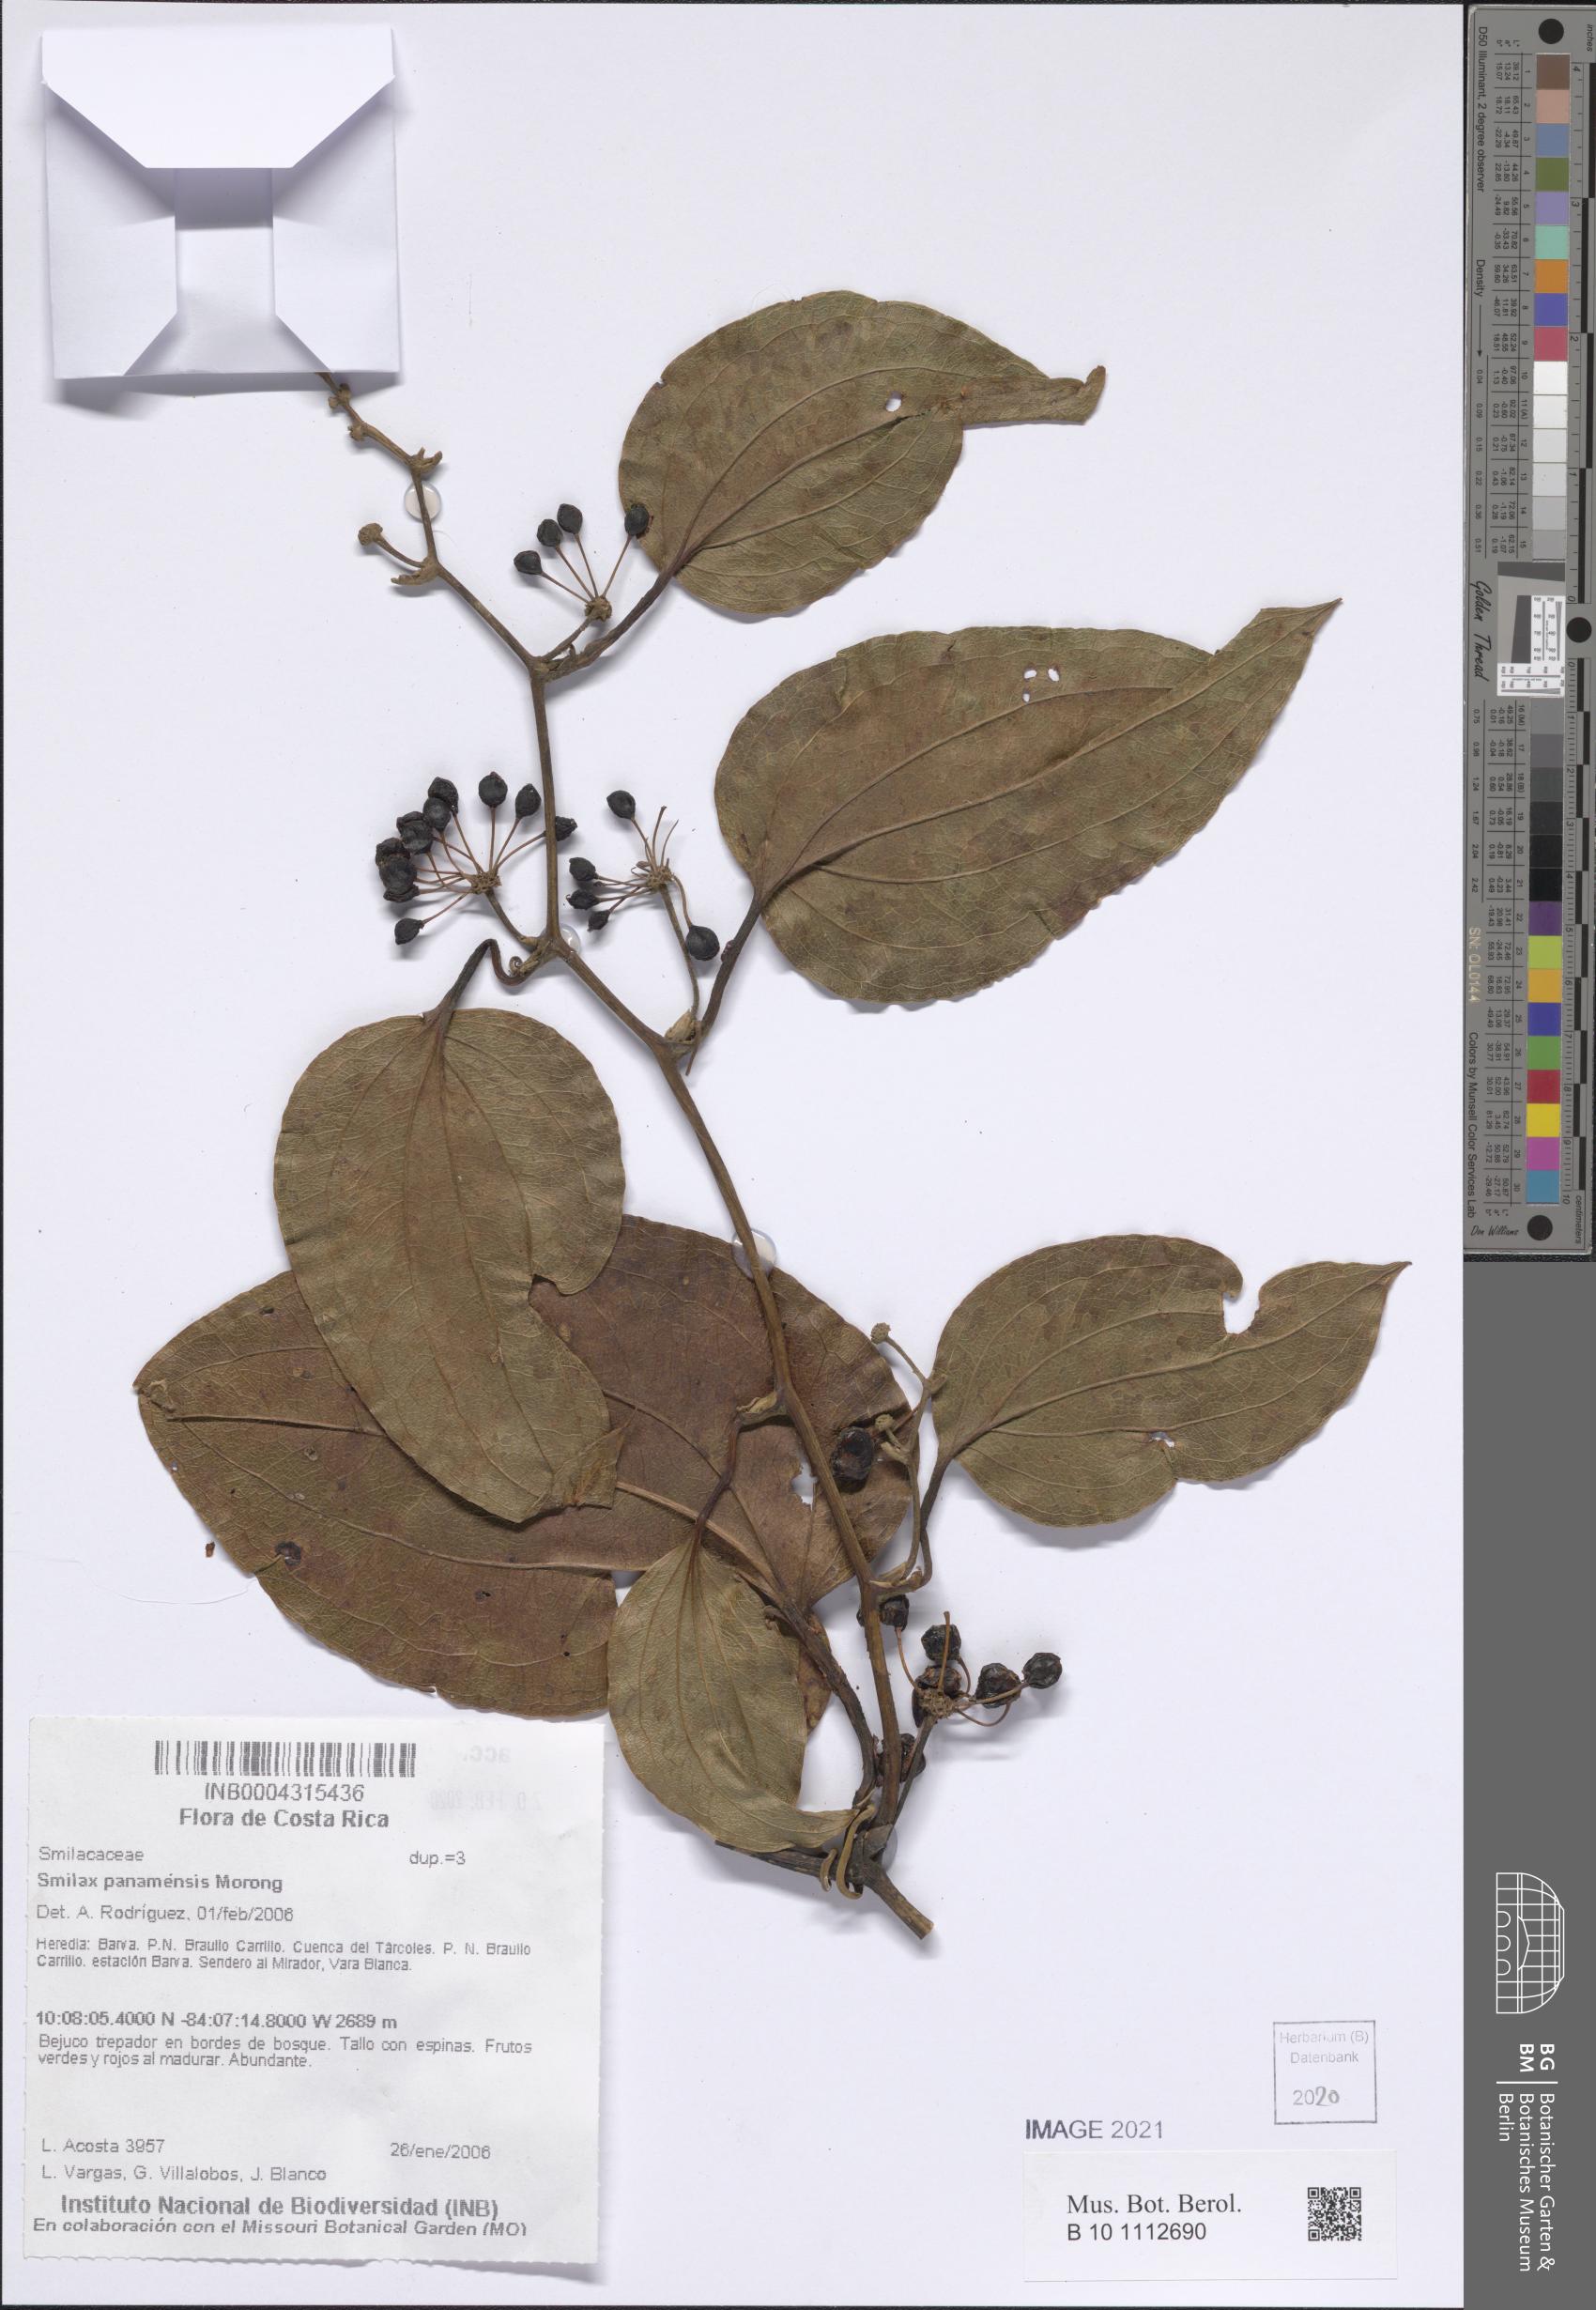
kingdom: Plantae
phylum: Tracheophyta
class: Liliopsida
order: Liliales
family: Smilacaceae
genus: Smilax
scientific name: Smilax purhampuy
